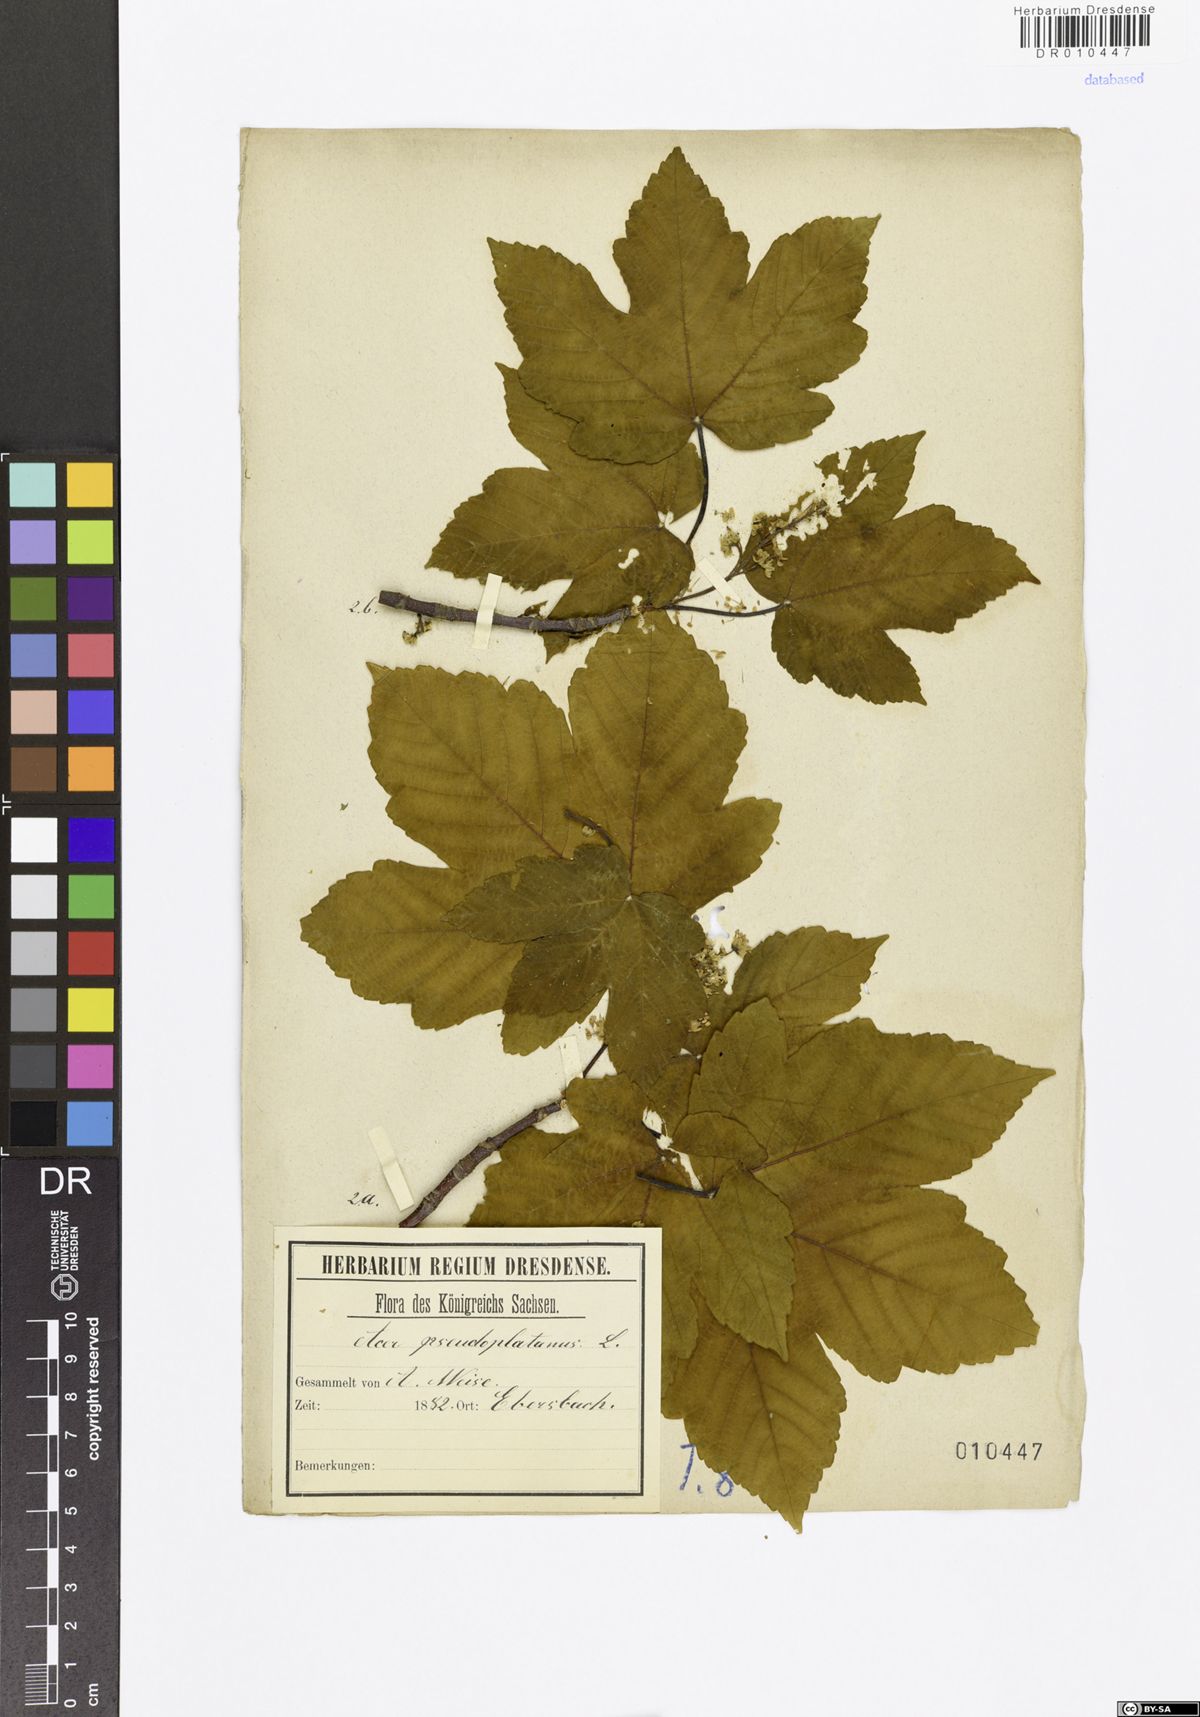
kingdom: Plantae
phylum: Tracheophyta
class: Magnoliopsida
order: Sapindales
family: Sapindaceae
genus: Acer
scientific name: Acer pseudoplatanus
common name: Sycamore
